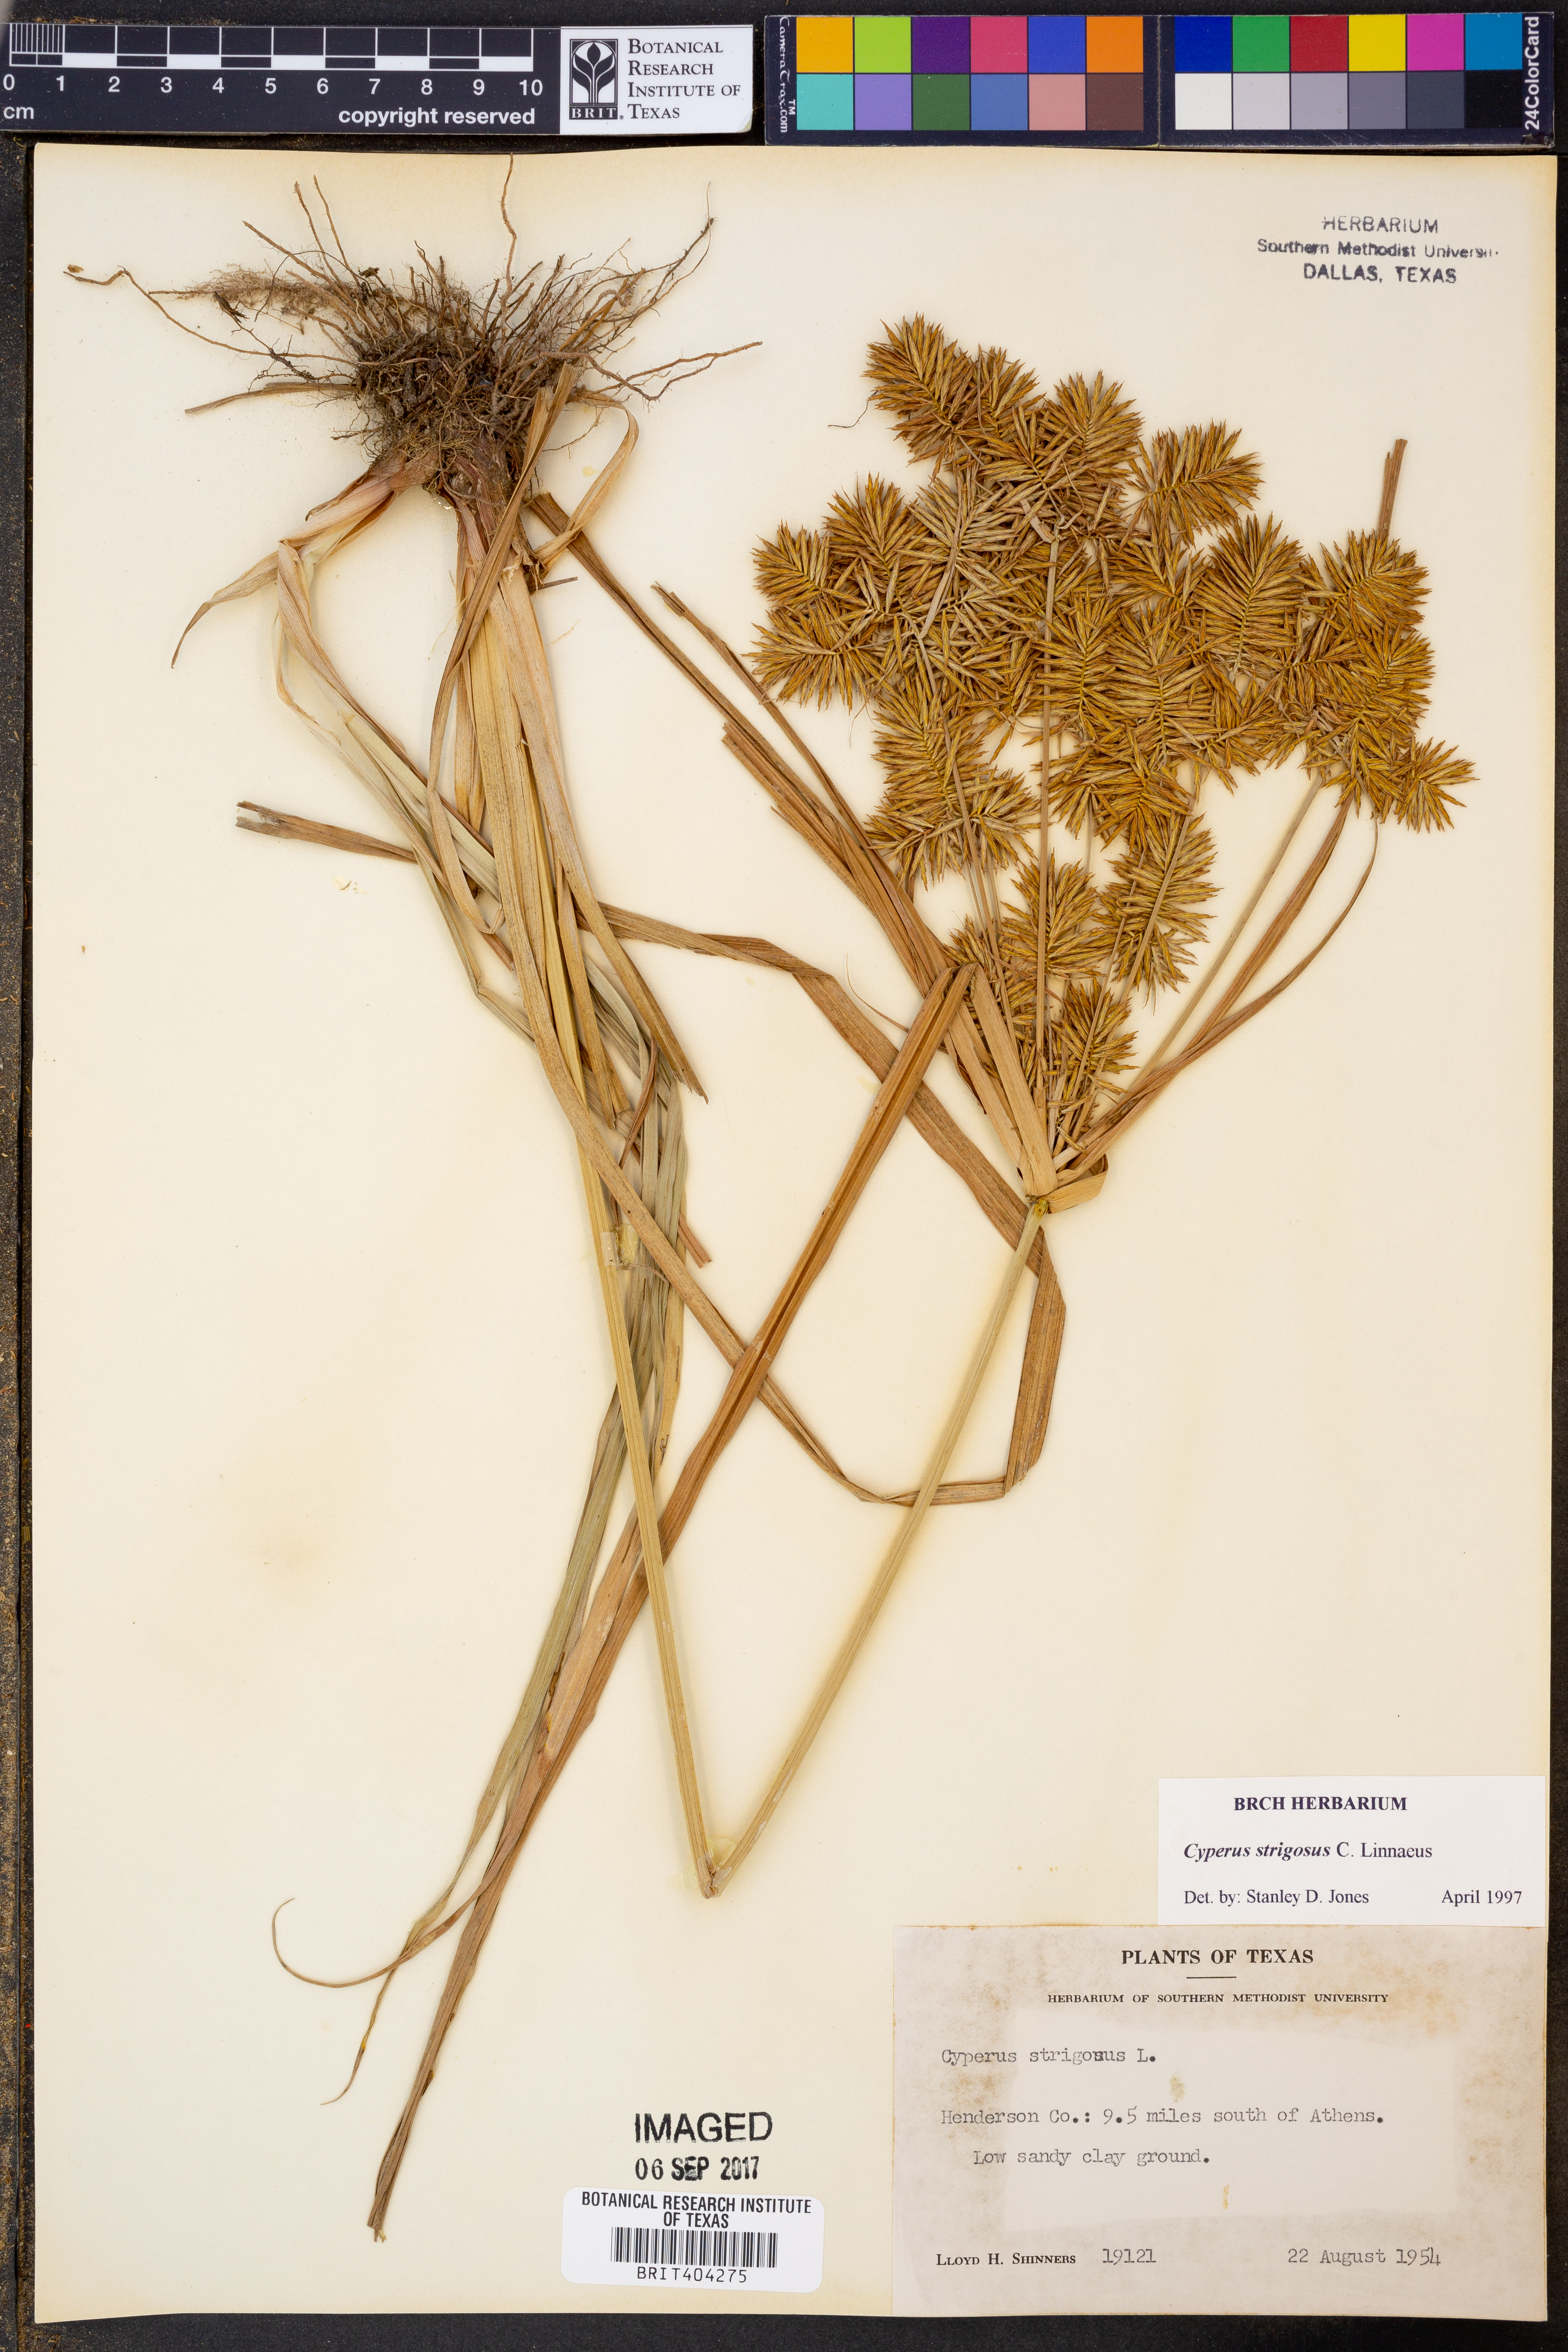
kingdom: Plantae
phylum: Tracheophyta
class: Liliopsida
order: Poales
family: Cyperaceae
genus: Cyperus
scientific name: Cyperus strigosus
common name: False nutsedge
